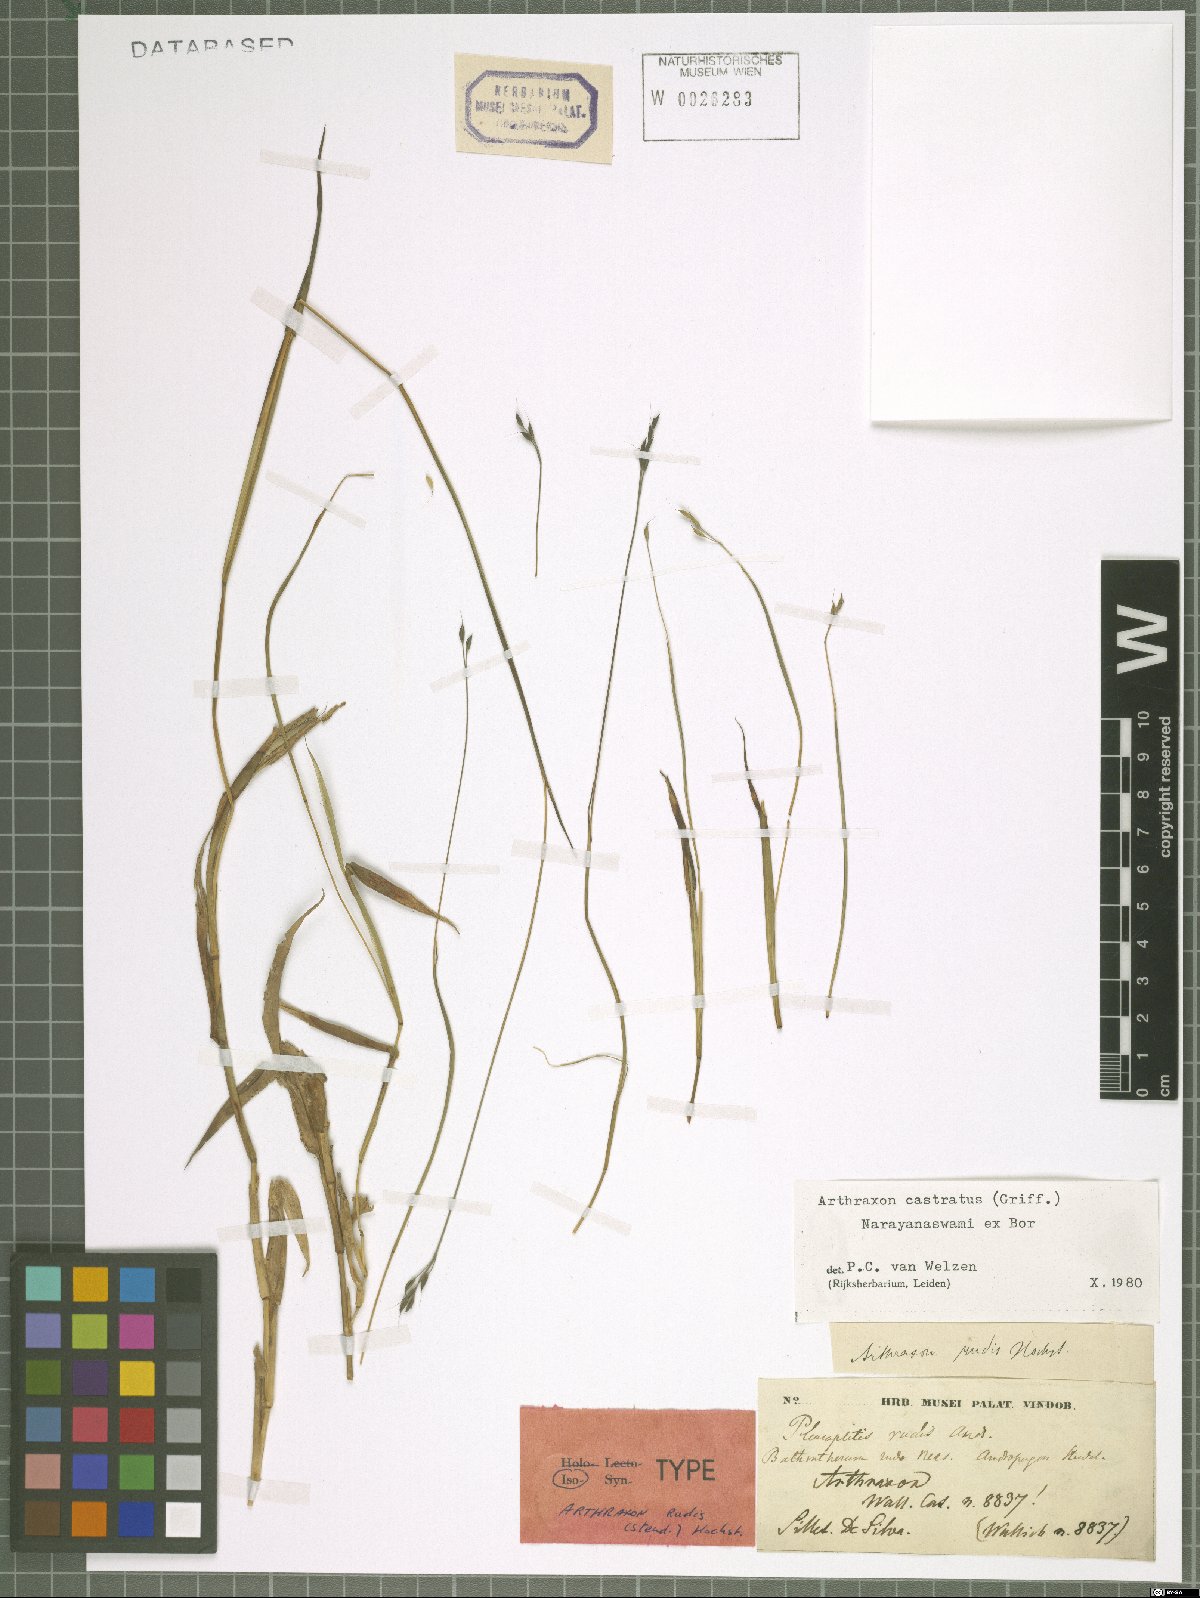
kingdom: Plantae
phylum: Tracheophyta
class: Liliopsida
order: Poales
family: Poaceae
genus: Arthraxon
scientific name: Arthraxon castratus
